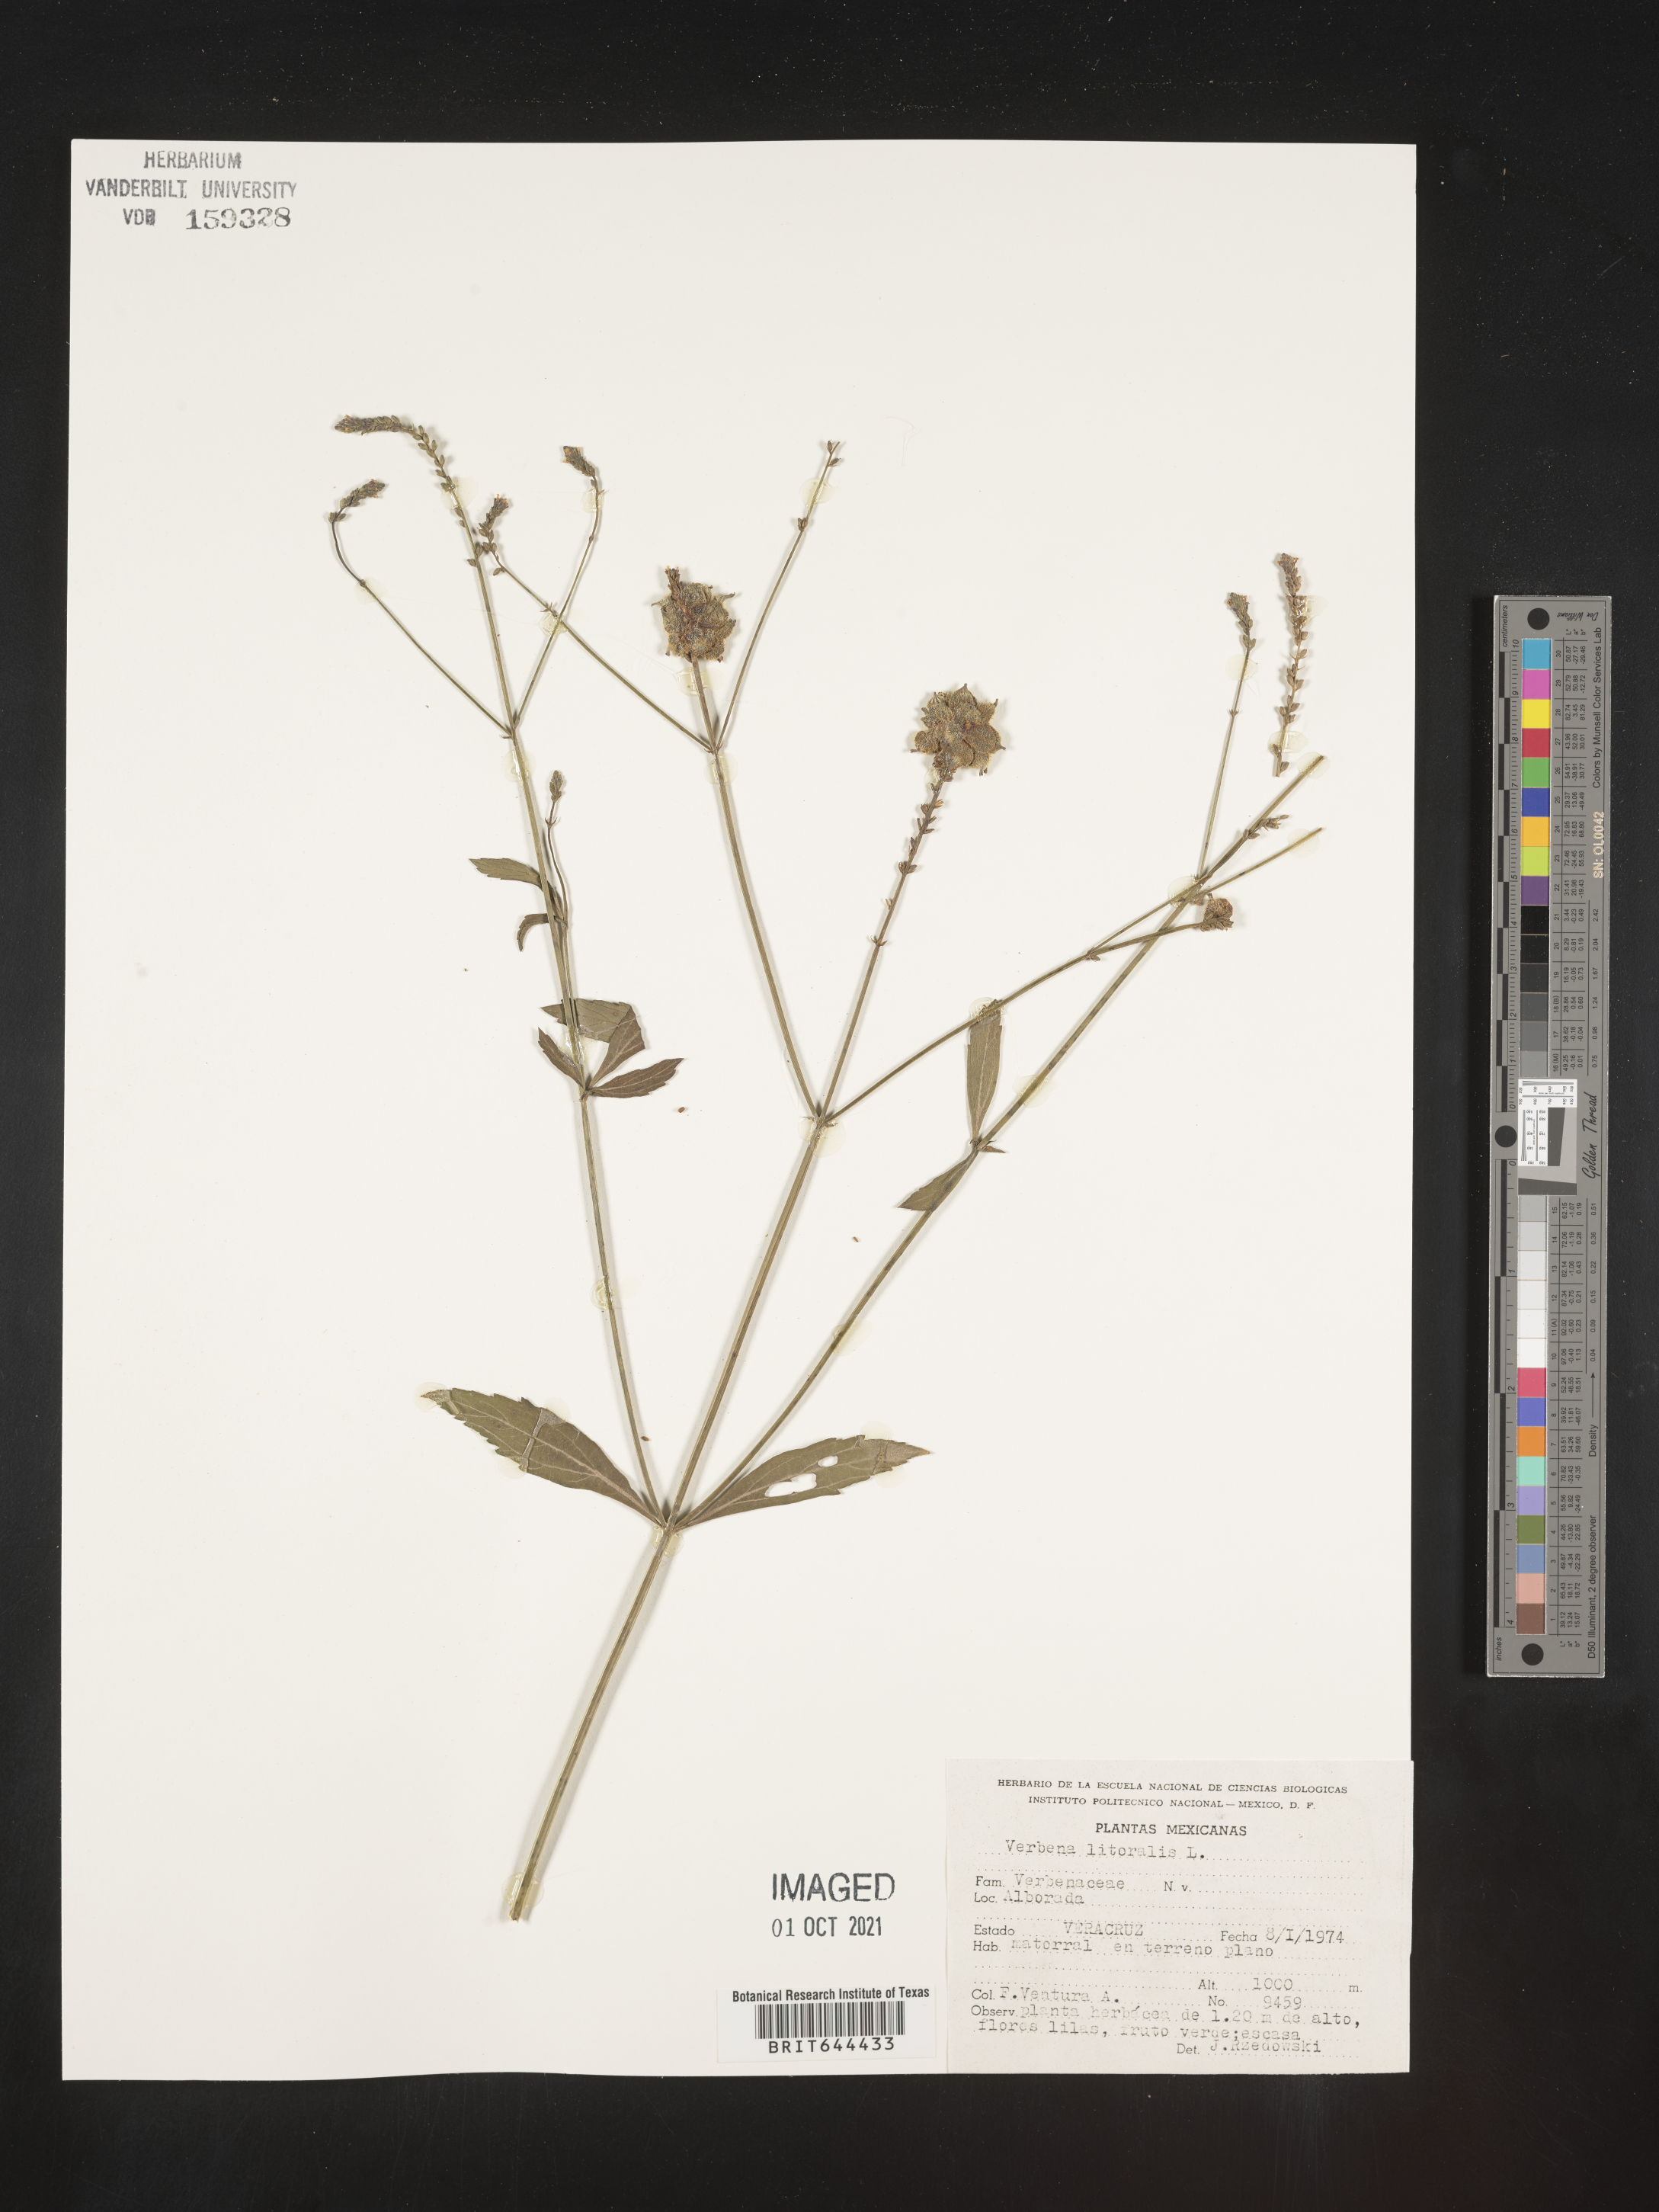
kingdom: Plantae
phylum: Tracheophyta
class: Magnoliopsida
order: Lamiales
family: Verbenaceae
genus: Verbena
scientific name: Verbena
